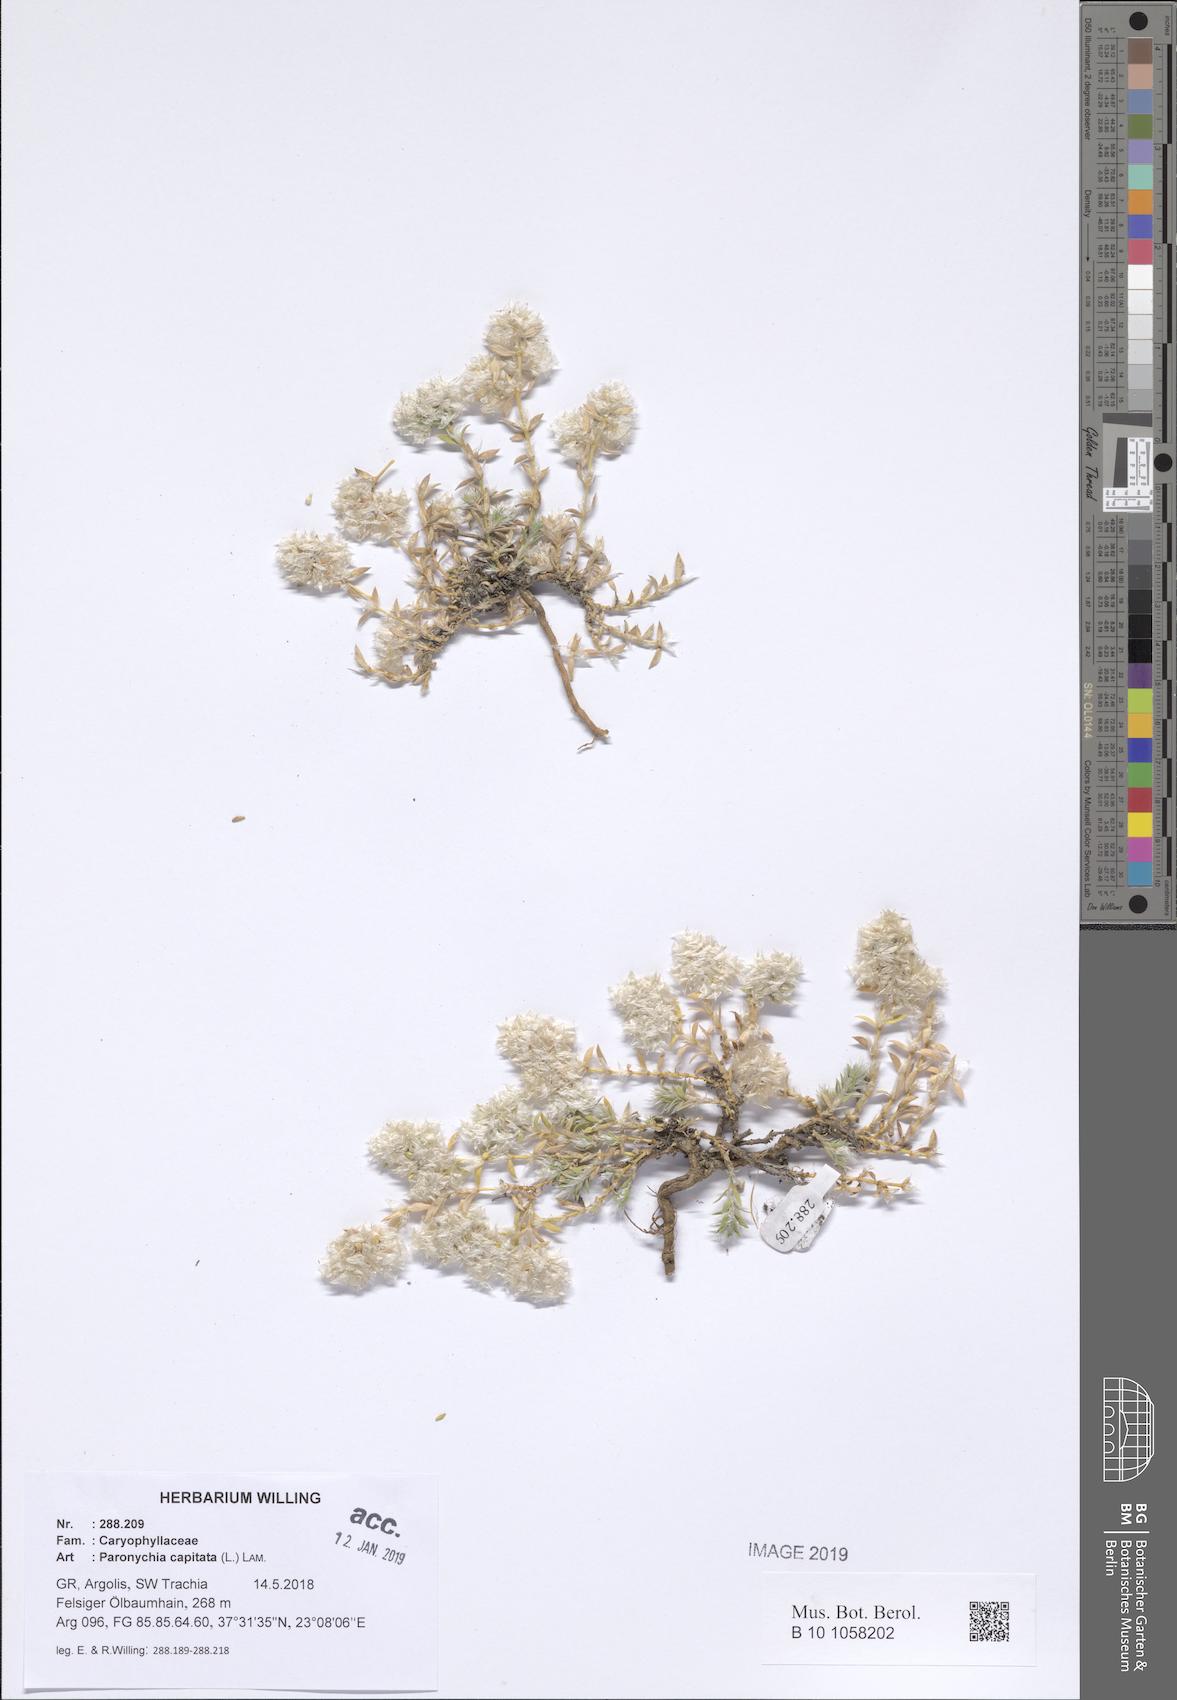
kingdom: Plantae
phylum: Tracheophyta
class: Magnoliopsida
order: Caryophyllales
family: Caryophyllaceae
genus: Paronychia
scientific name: Paronychia capitata
